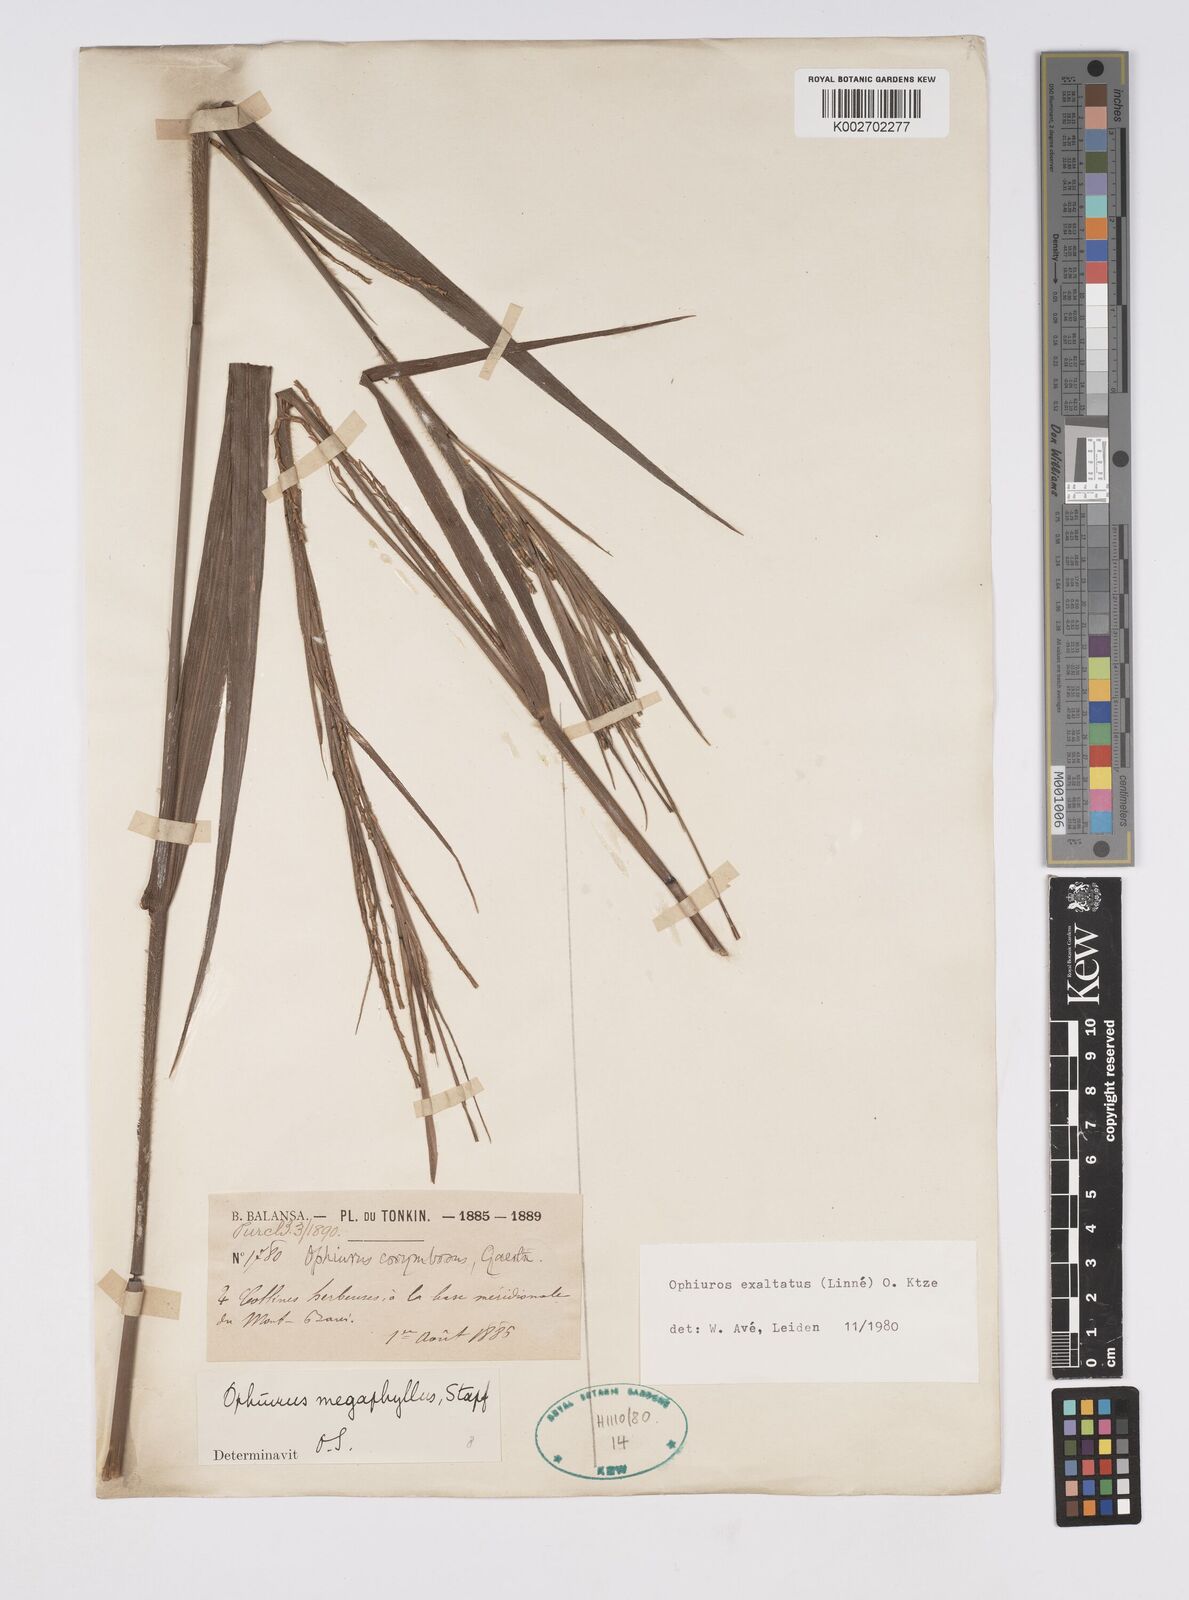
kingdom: Plantae
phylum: Tracheophyta
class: Liliopsida
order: Poales
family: Poaceae
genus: Ophiuros
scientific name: Ophiuros megaphyllus
